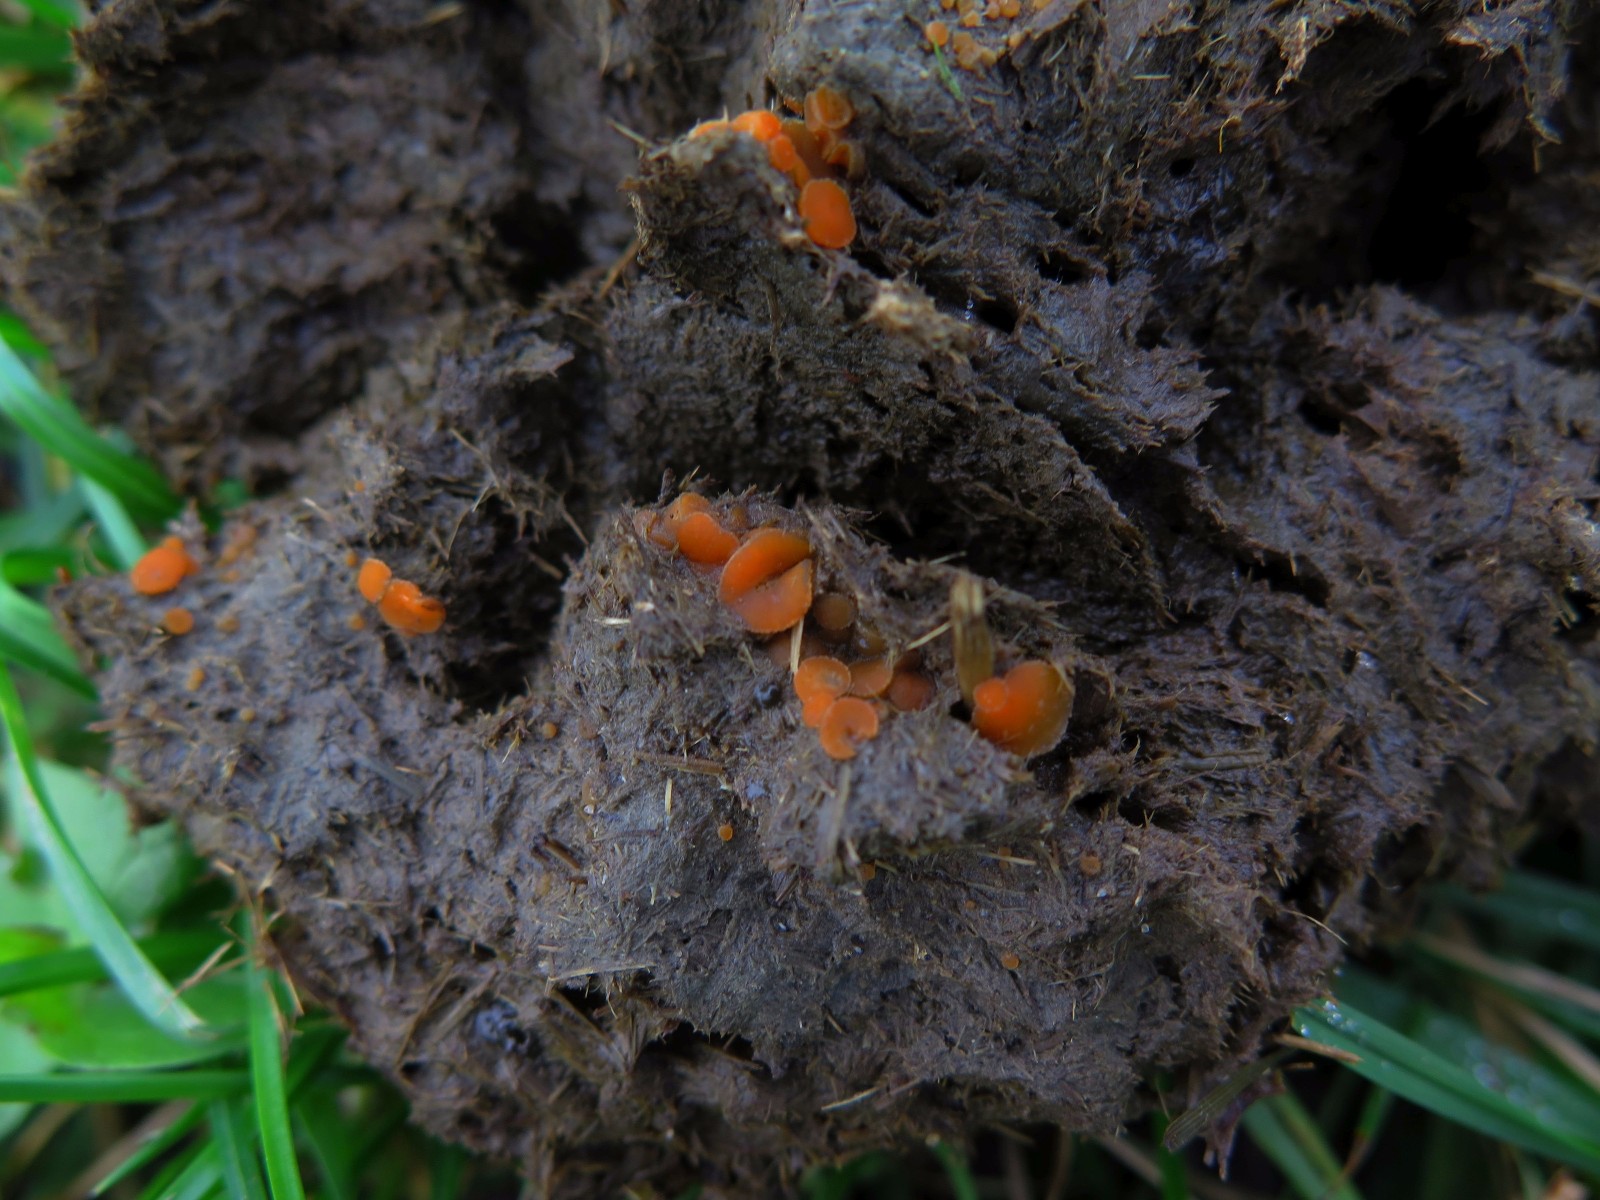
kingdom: Fungi
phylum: Ascomycota
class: Pezizomycetes
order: Pezizales
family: Pyronemataceae
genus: Cheilymenia
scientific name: Cheilymenia granulata
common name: møgbæger
